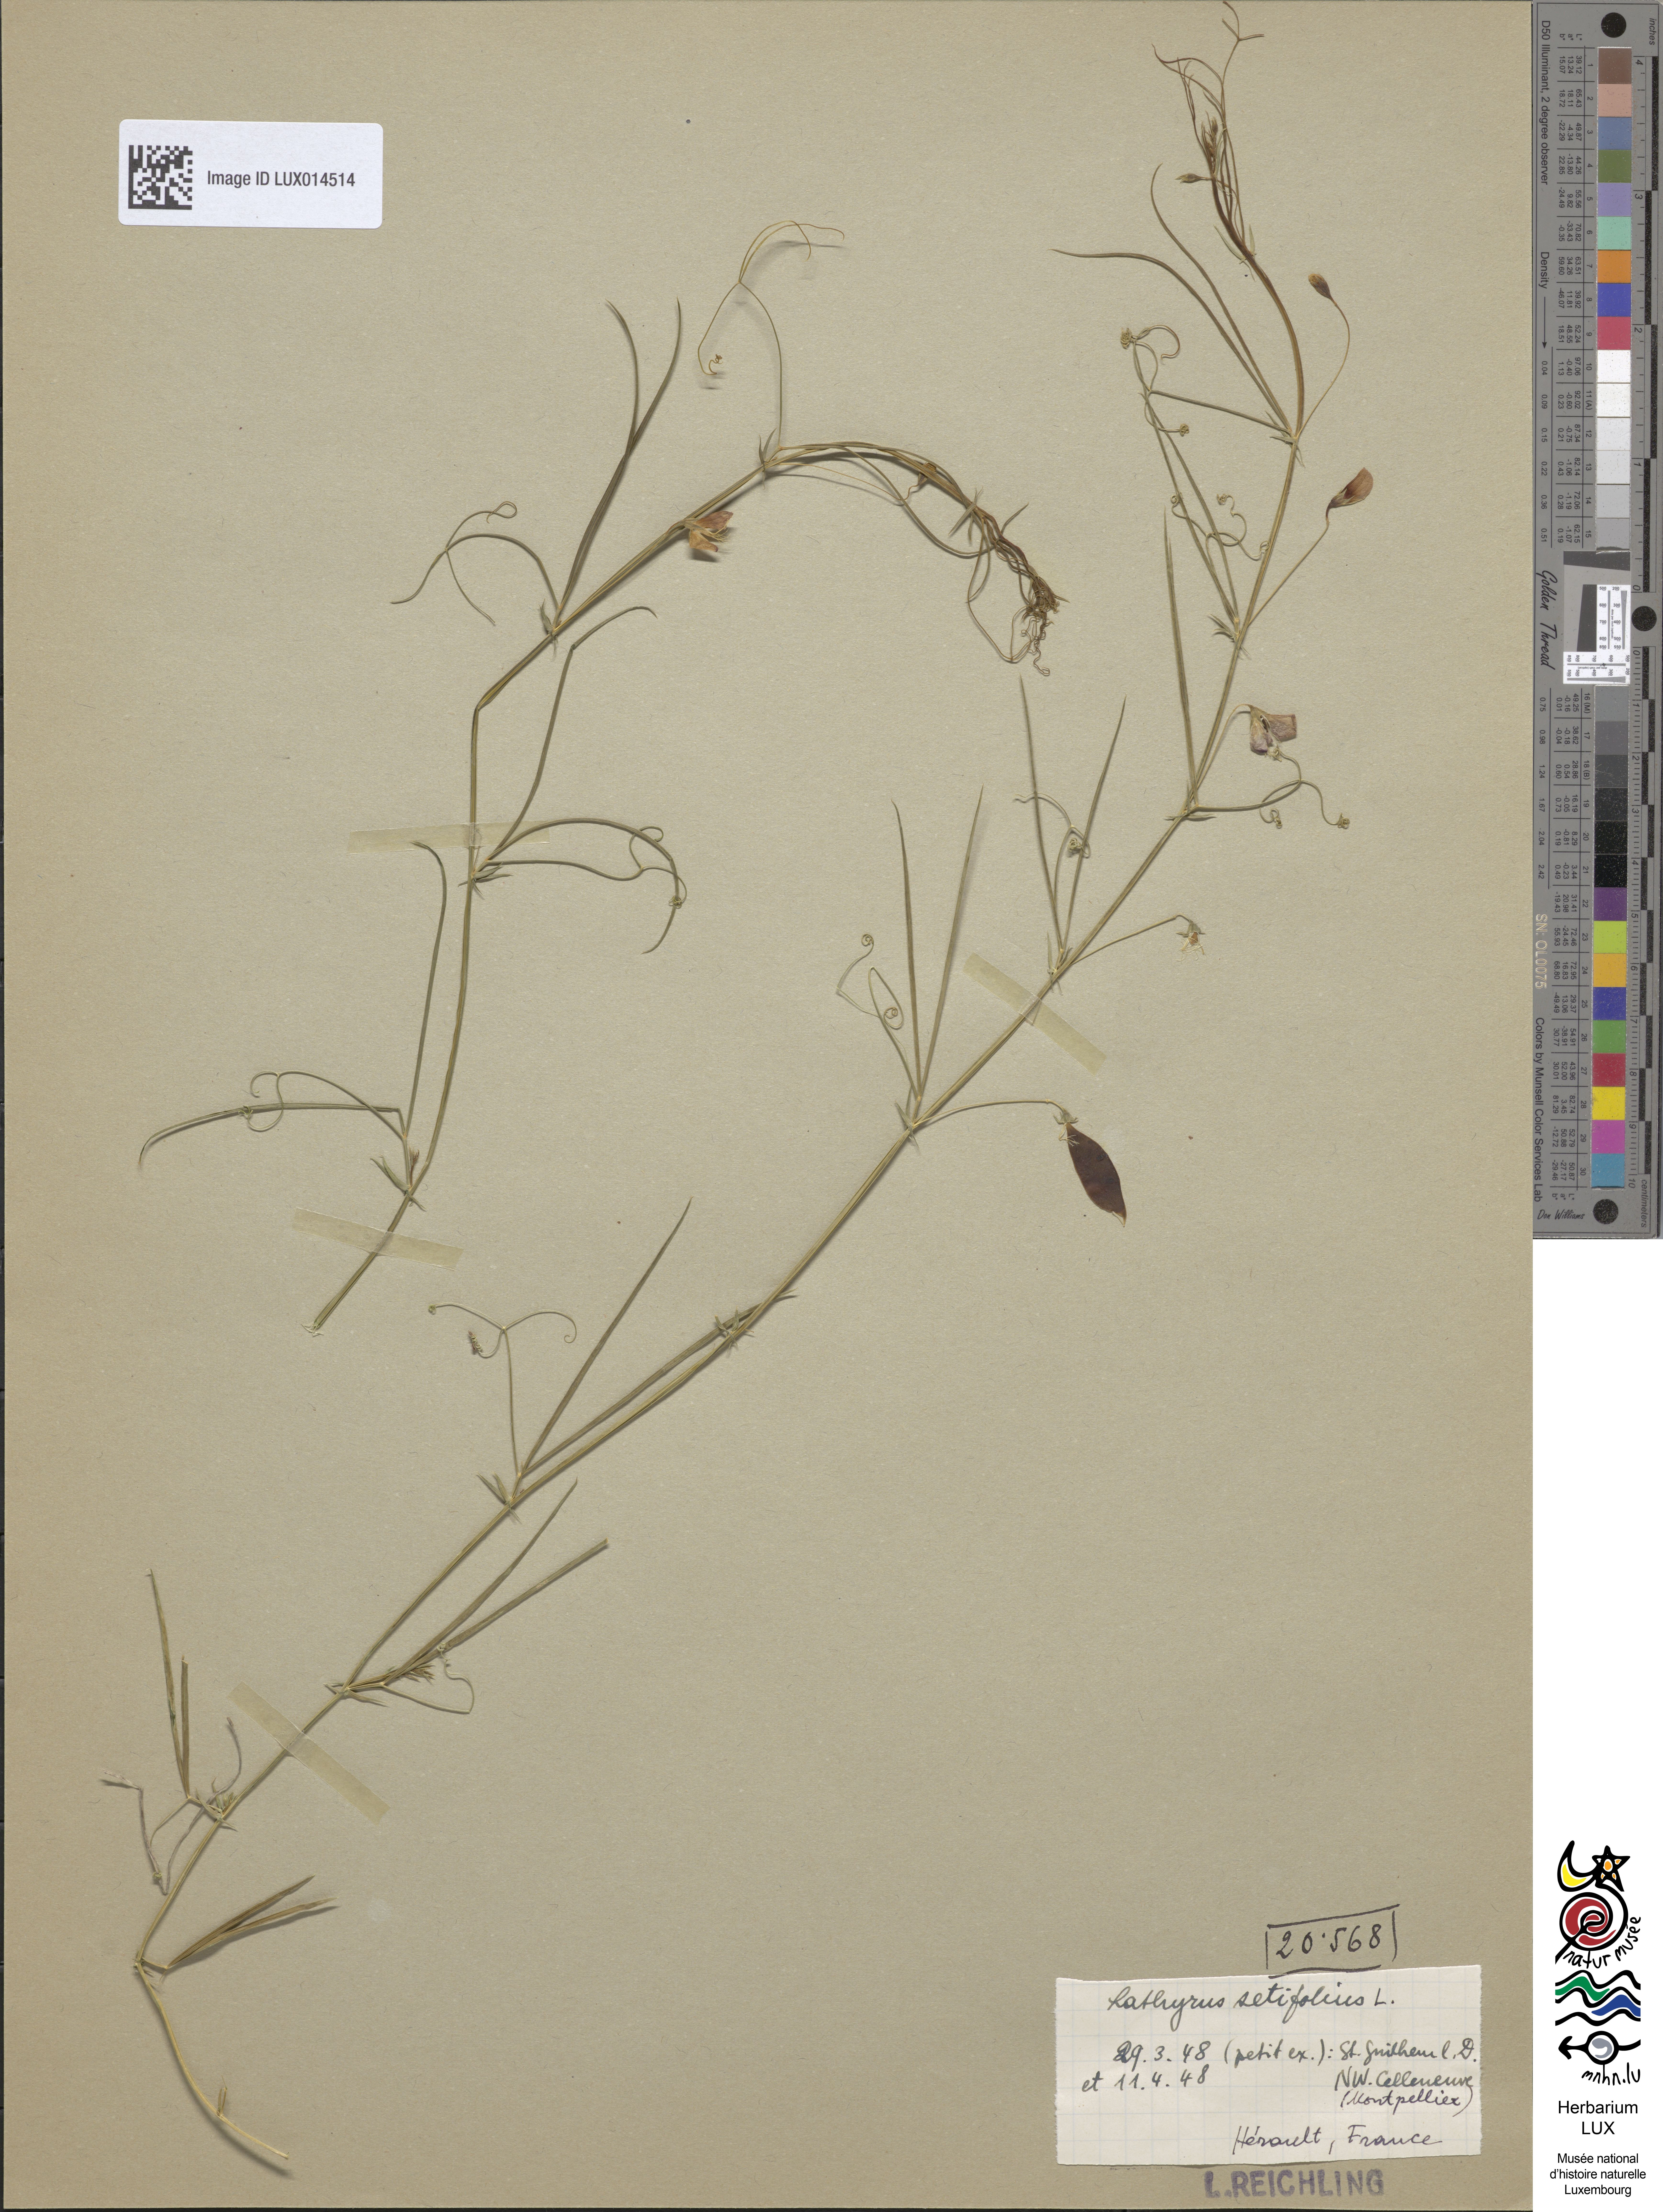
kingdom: Plantae
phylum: Tracheophyta
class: Magnoliopsida
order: Fabales
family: Fabaceae
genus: Lathyrus
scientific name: Lathyrus setifolius
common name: Brown vetchling
